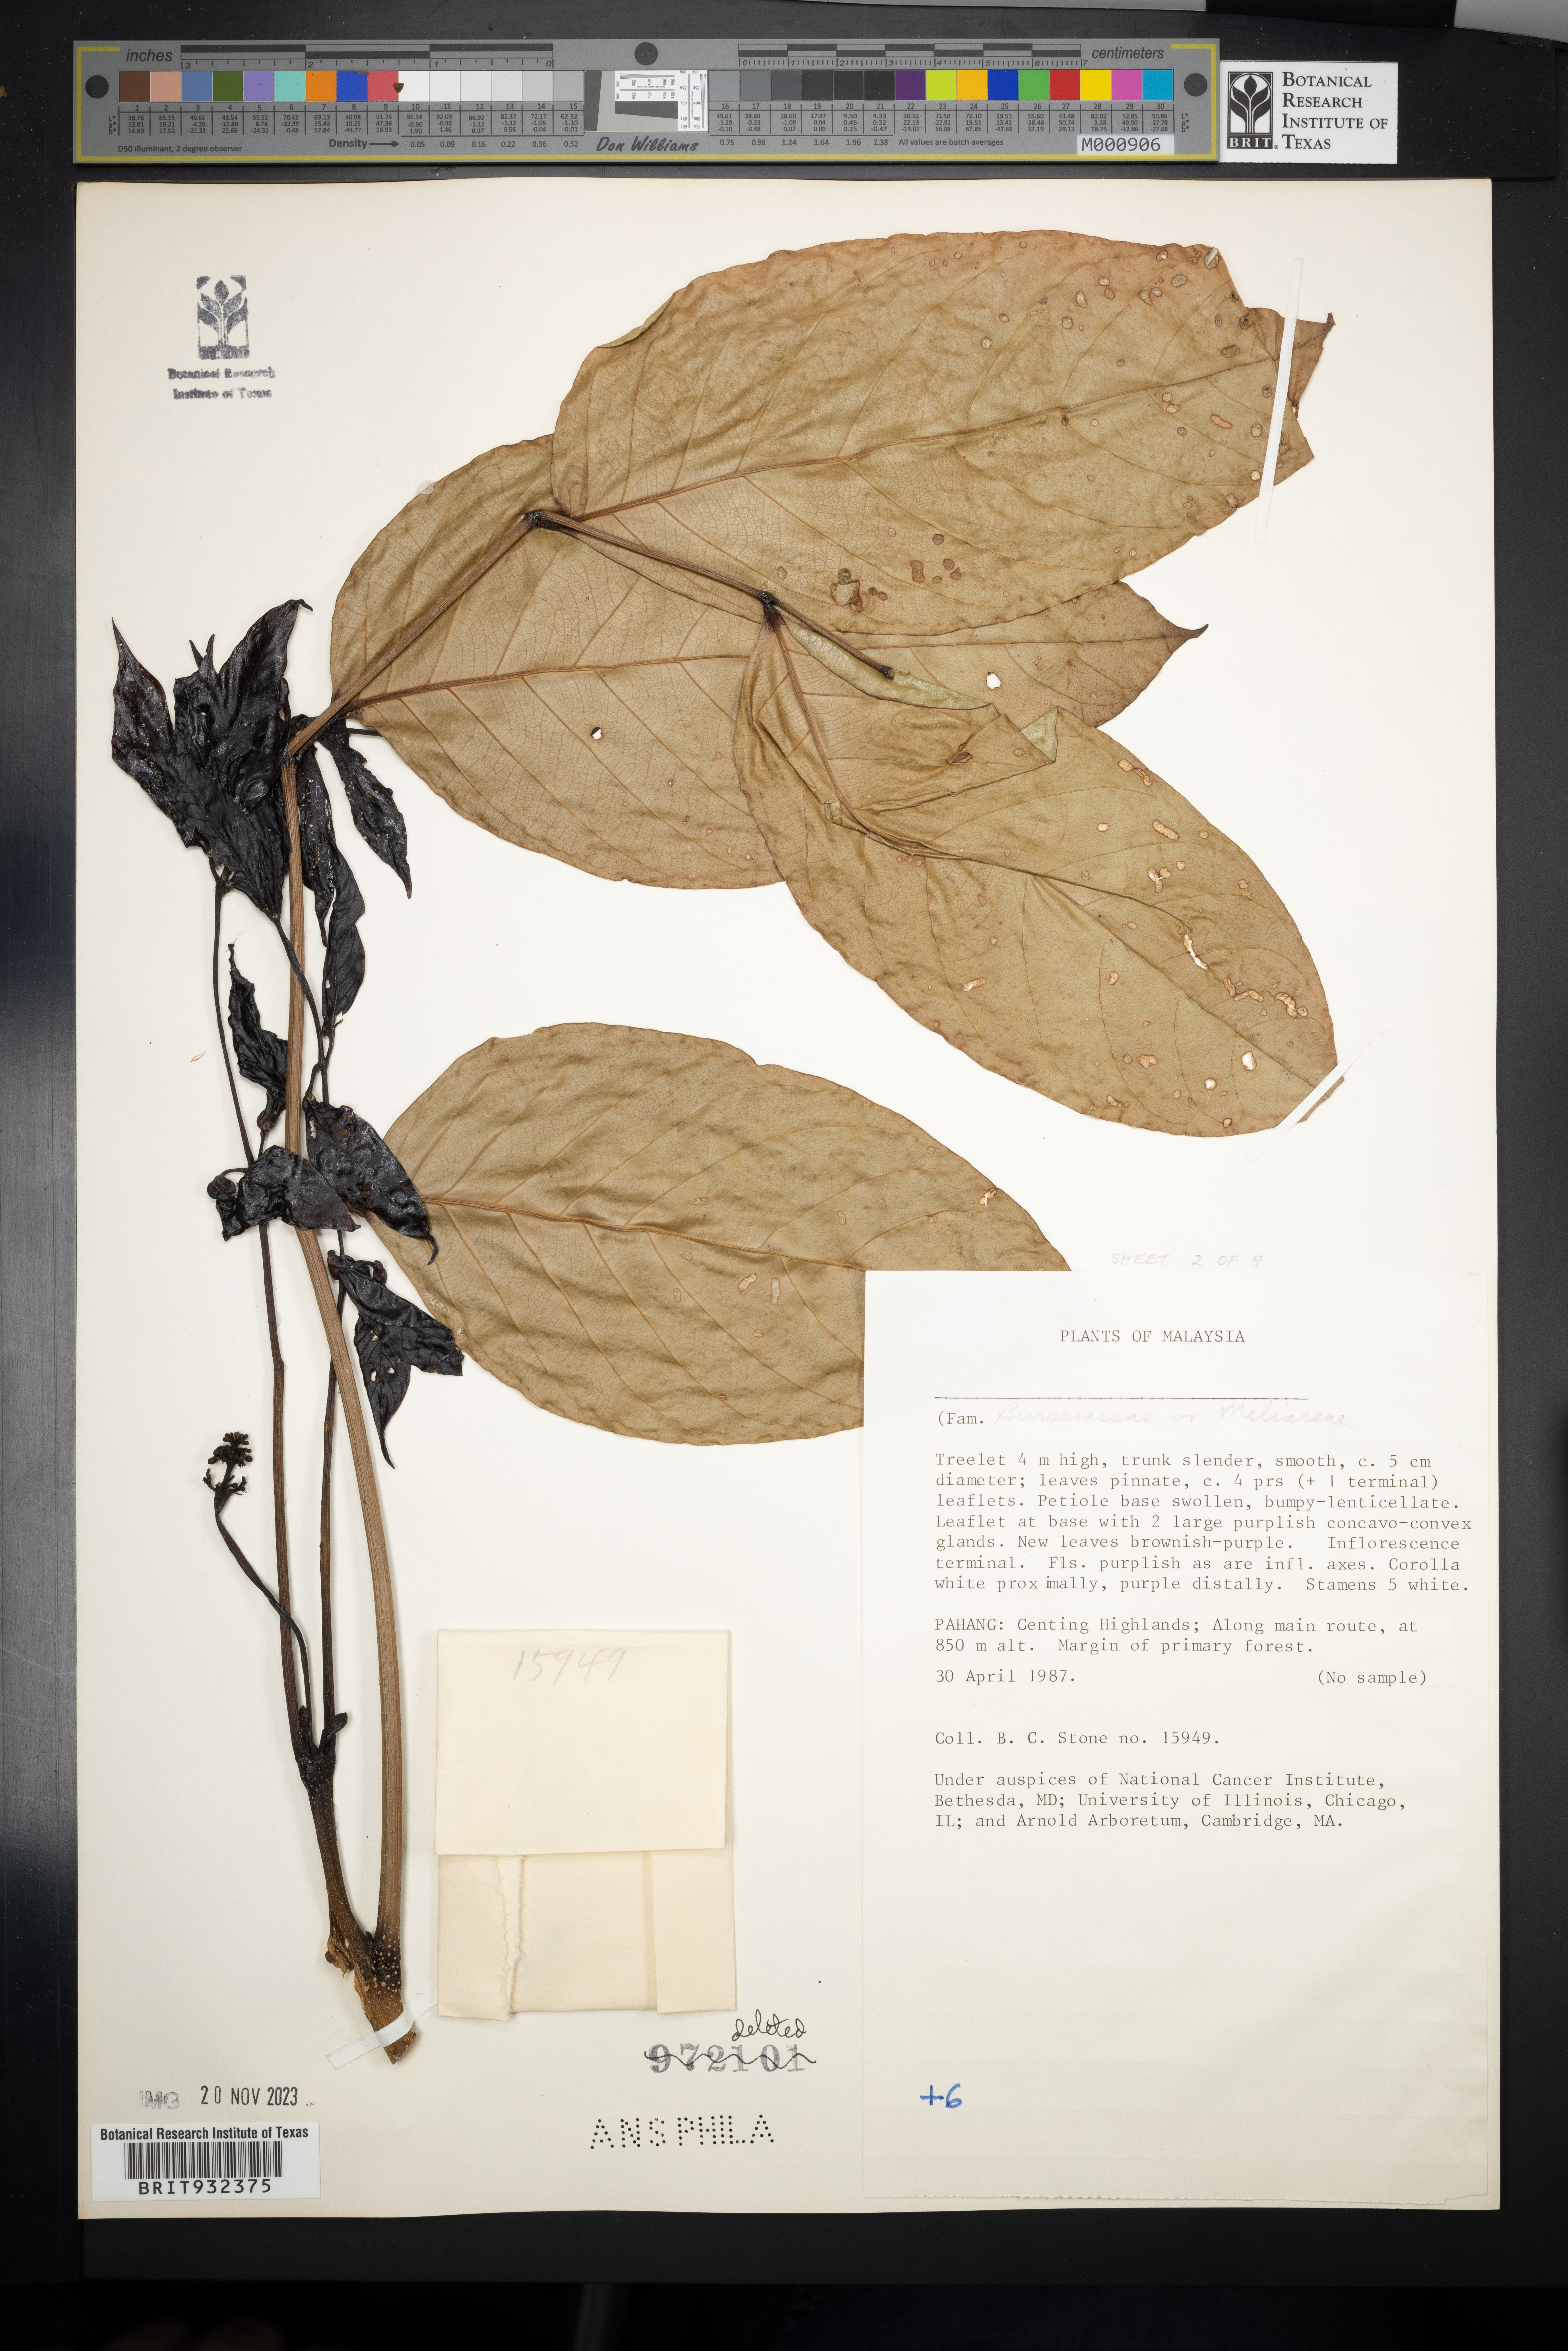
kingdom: Plantae
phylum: Tracheophyta
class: Magnoliopsida
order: Sapindales
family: Meliaceae
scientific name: Meliaceae
